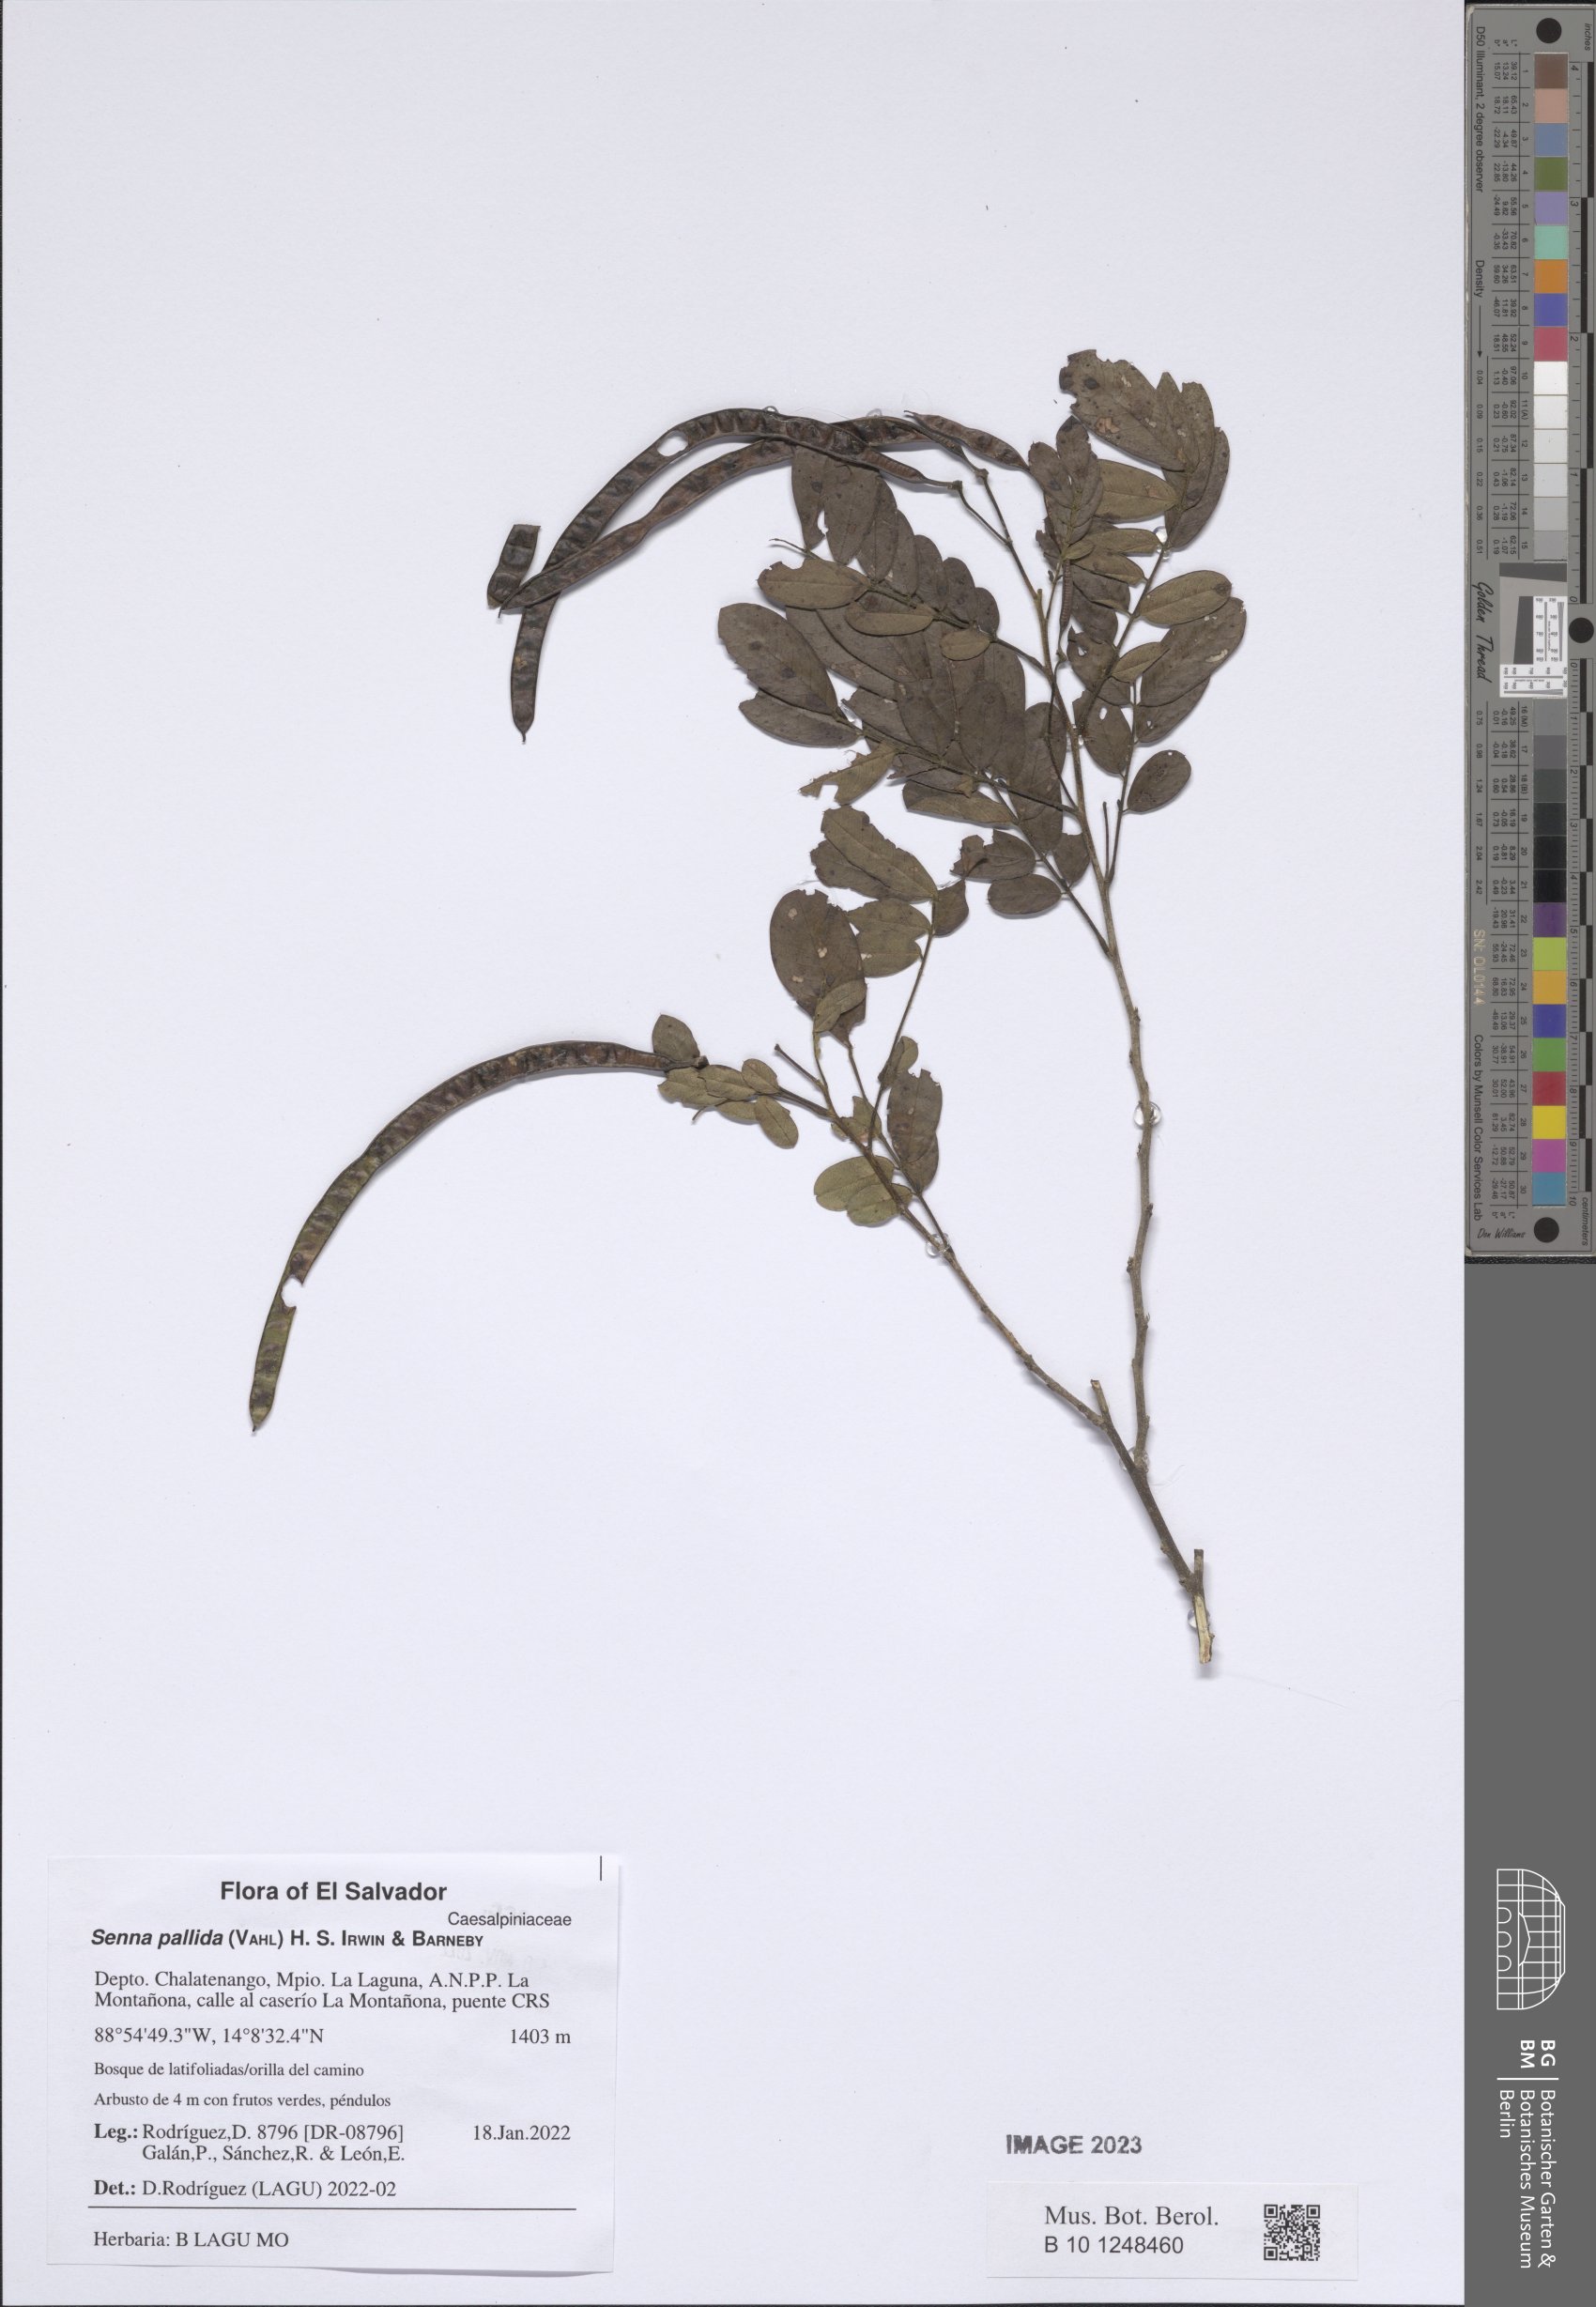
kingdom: Plantae
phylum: Tracheophyta
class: Magnoliopsida
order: Fabales
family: Fabaceae
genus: Senna
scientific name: Senna pallida
